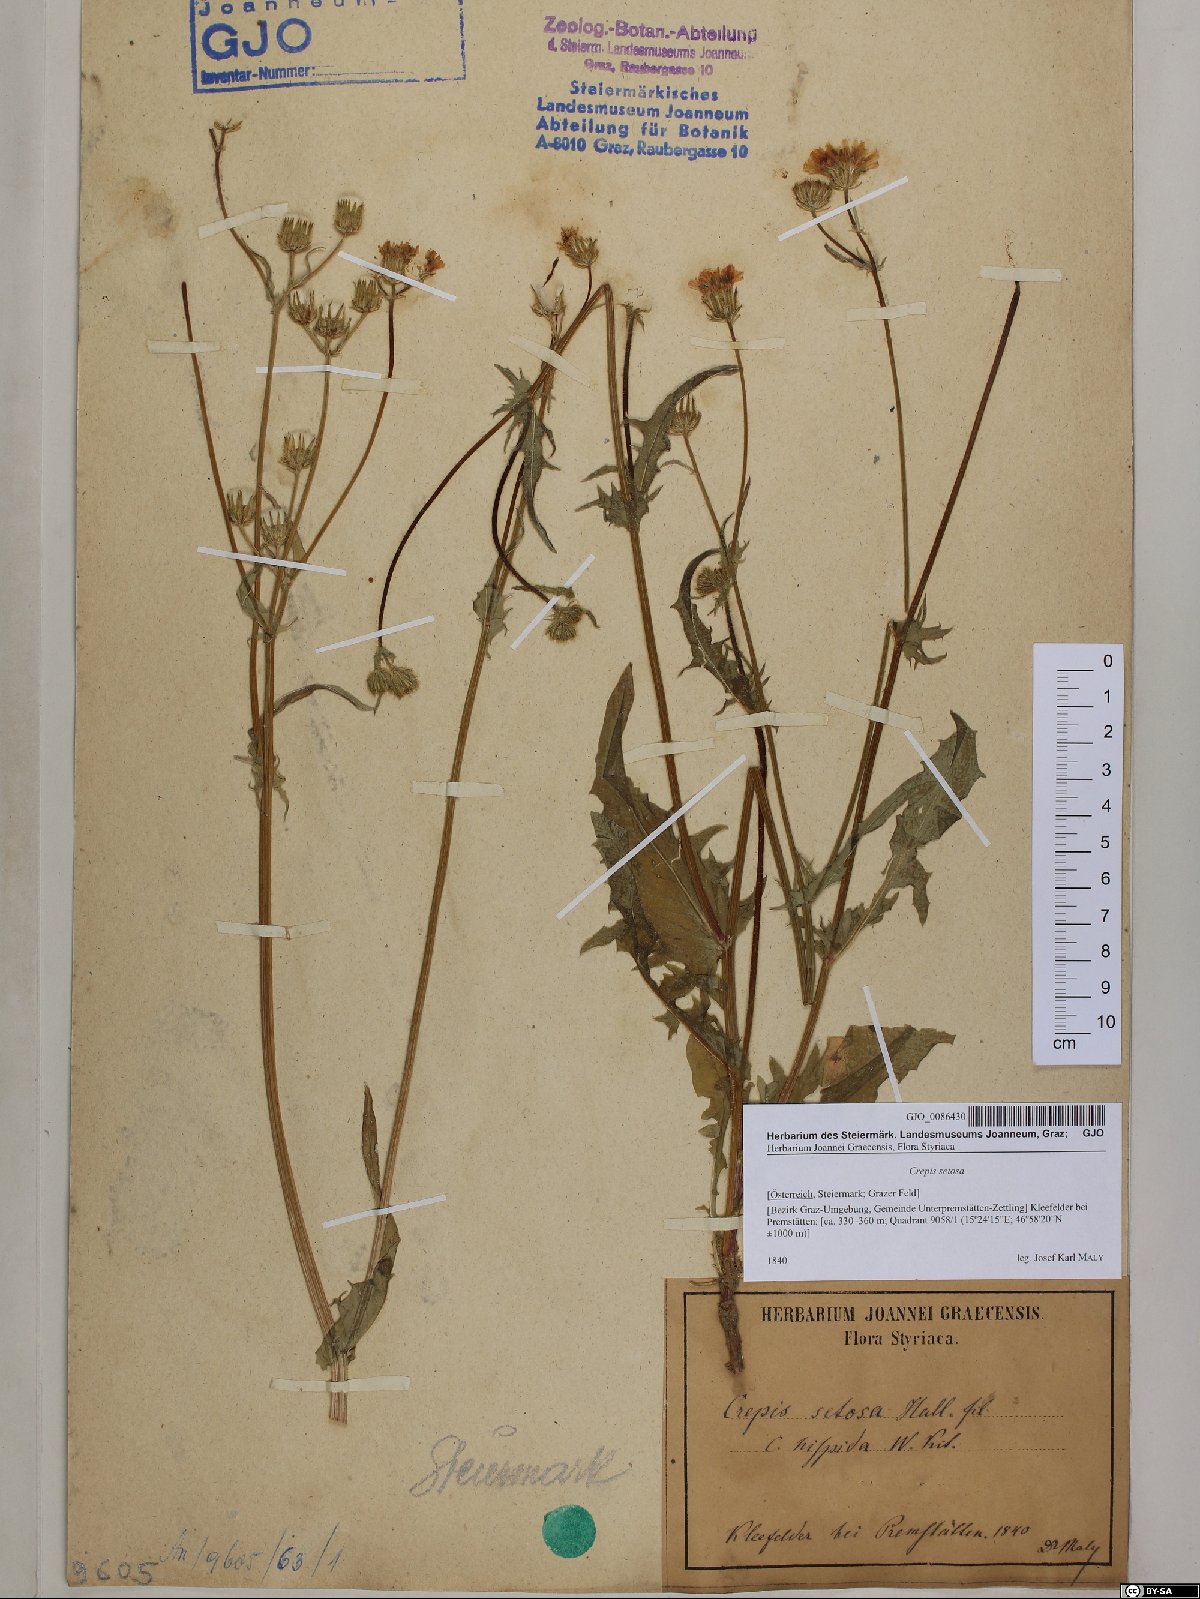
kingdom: Plantae
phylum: Tracheophyta
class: Magnoliopsida
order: Asterales
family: Asteraceae
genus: Crepis
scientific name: Crepis setosa
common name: Bristly hawk's-beard
